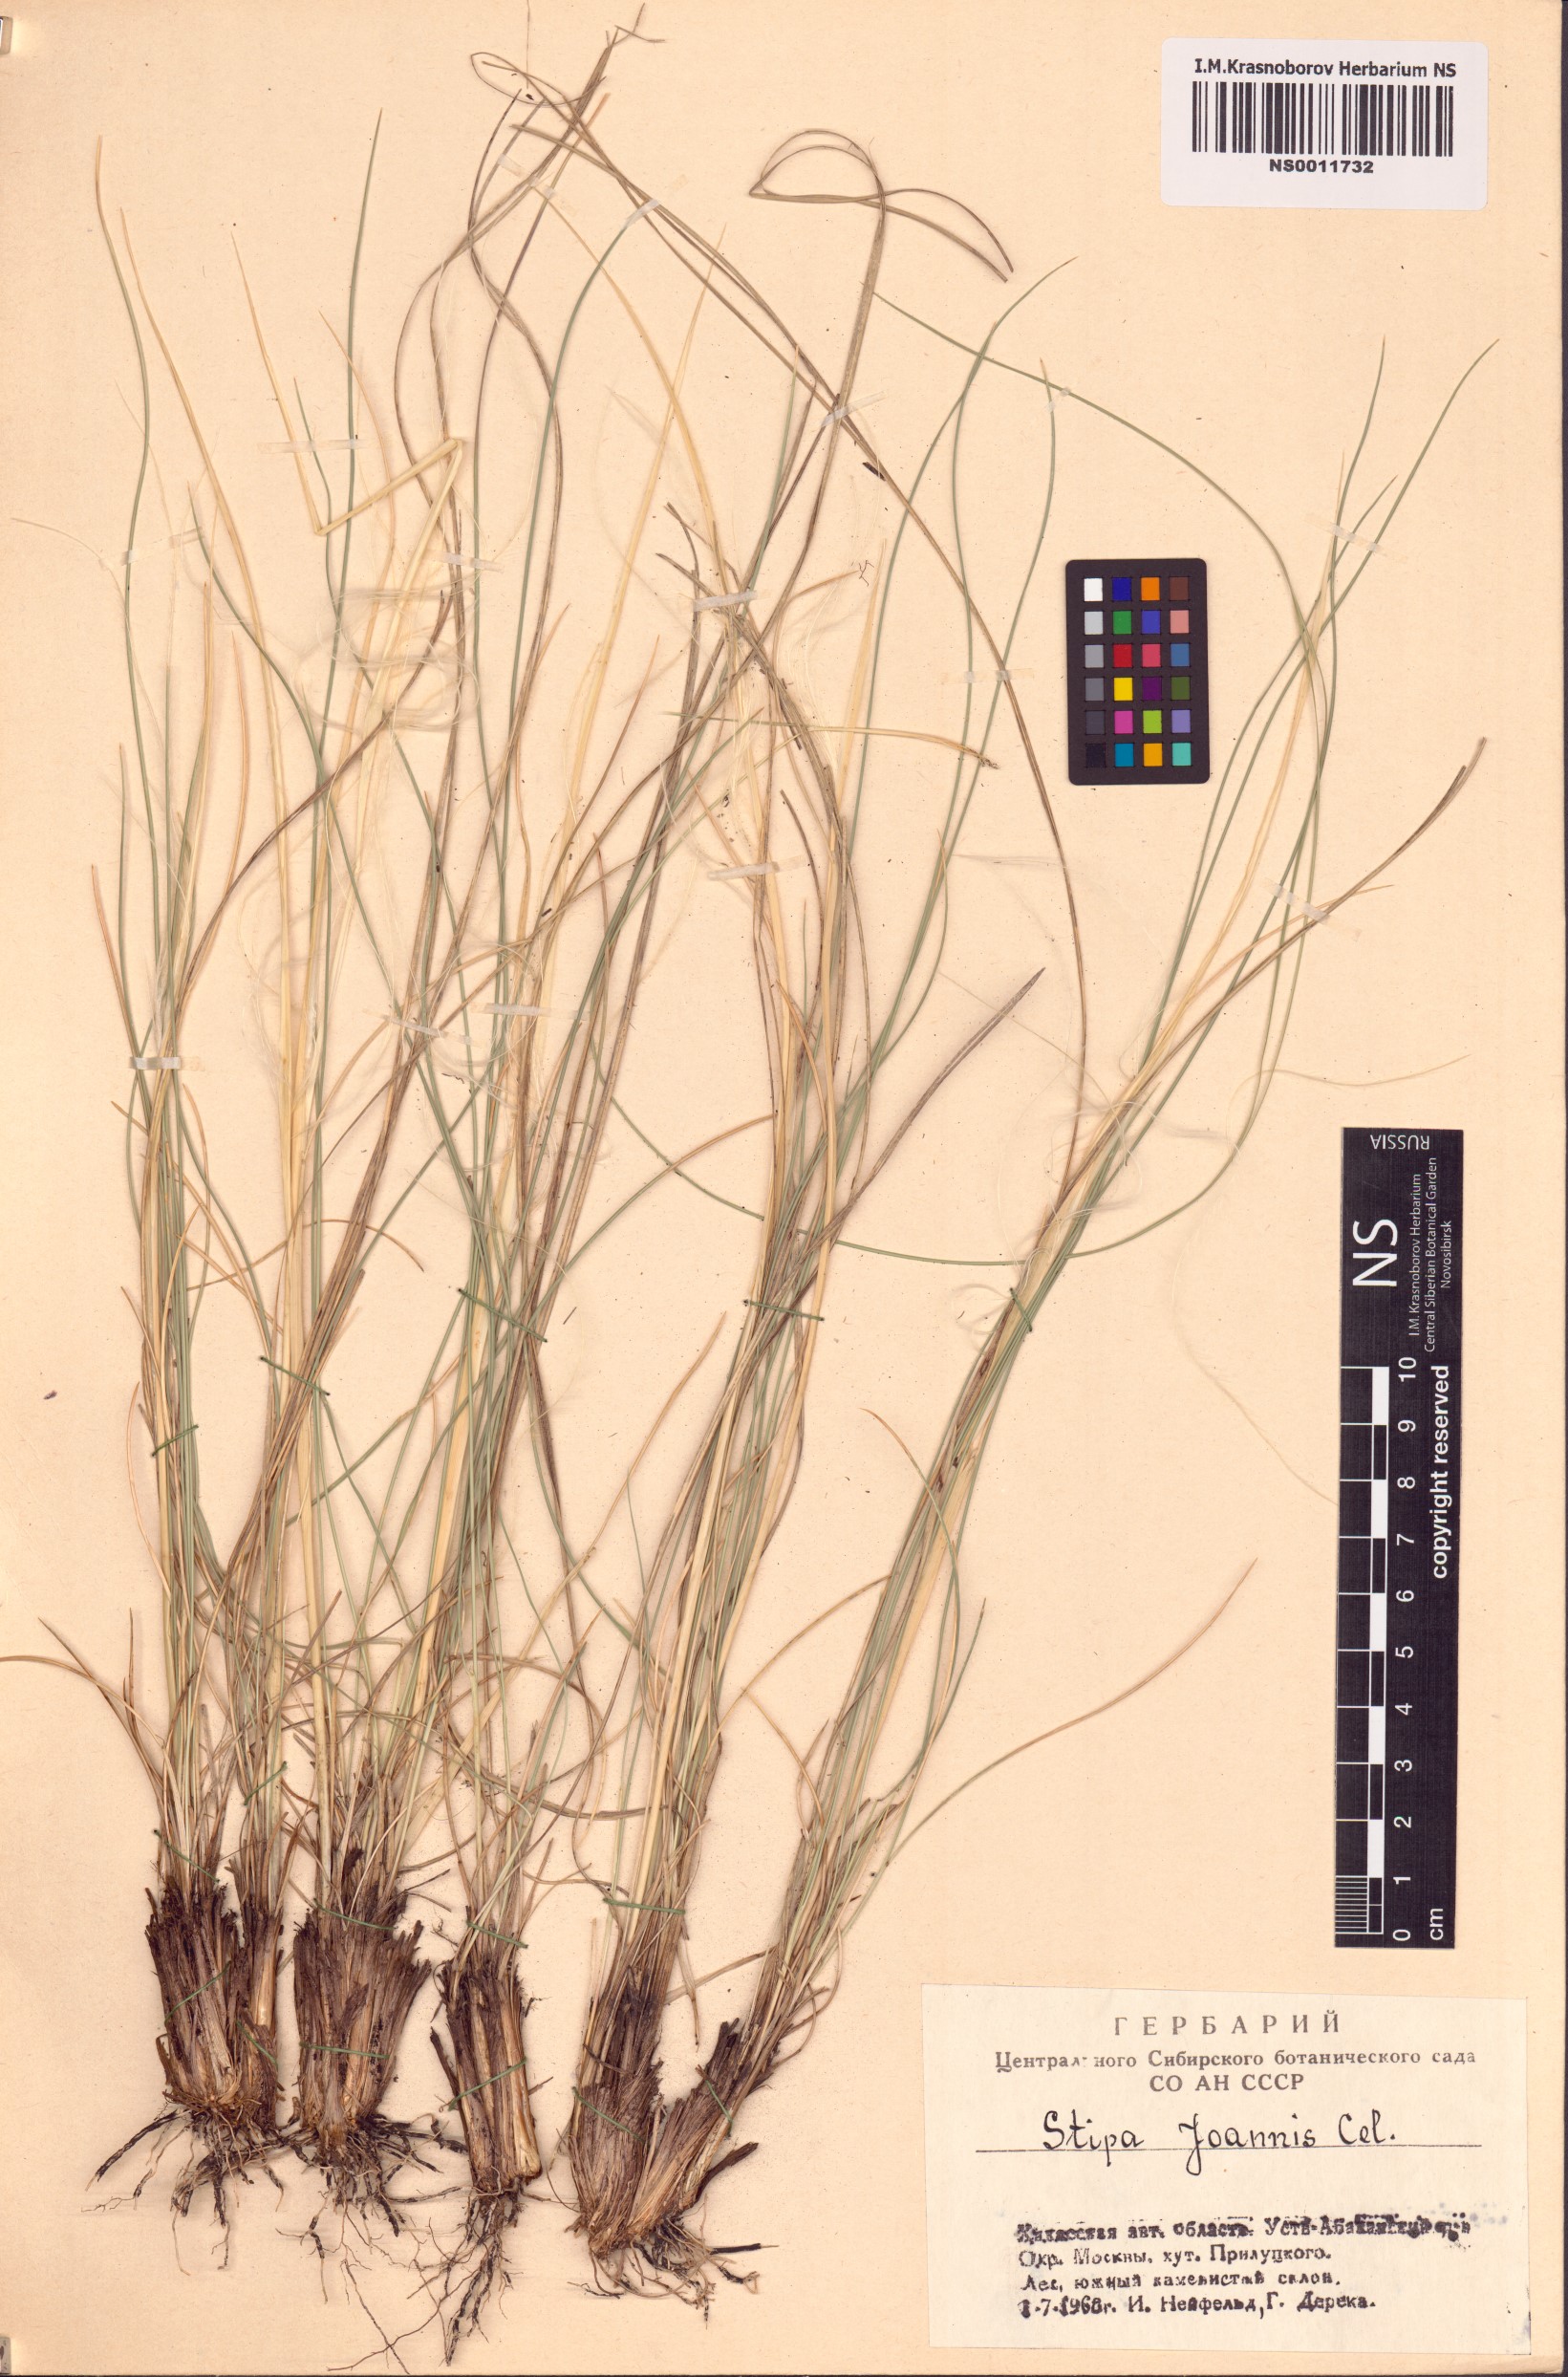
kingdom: Plantae
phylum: Tracheophyta
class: Liliopsida
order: Poales
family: Poaceae
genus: Stipa
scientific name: Stipa pennata
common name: European feather grass
